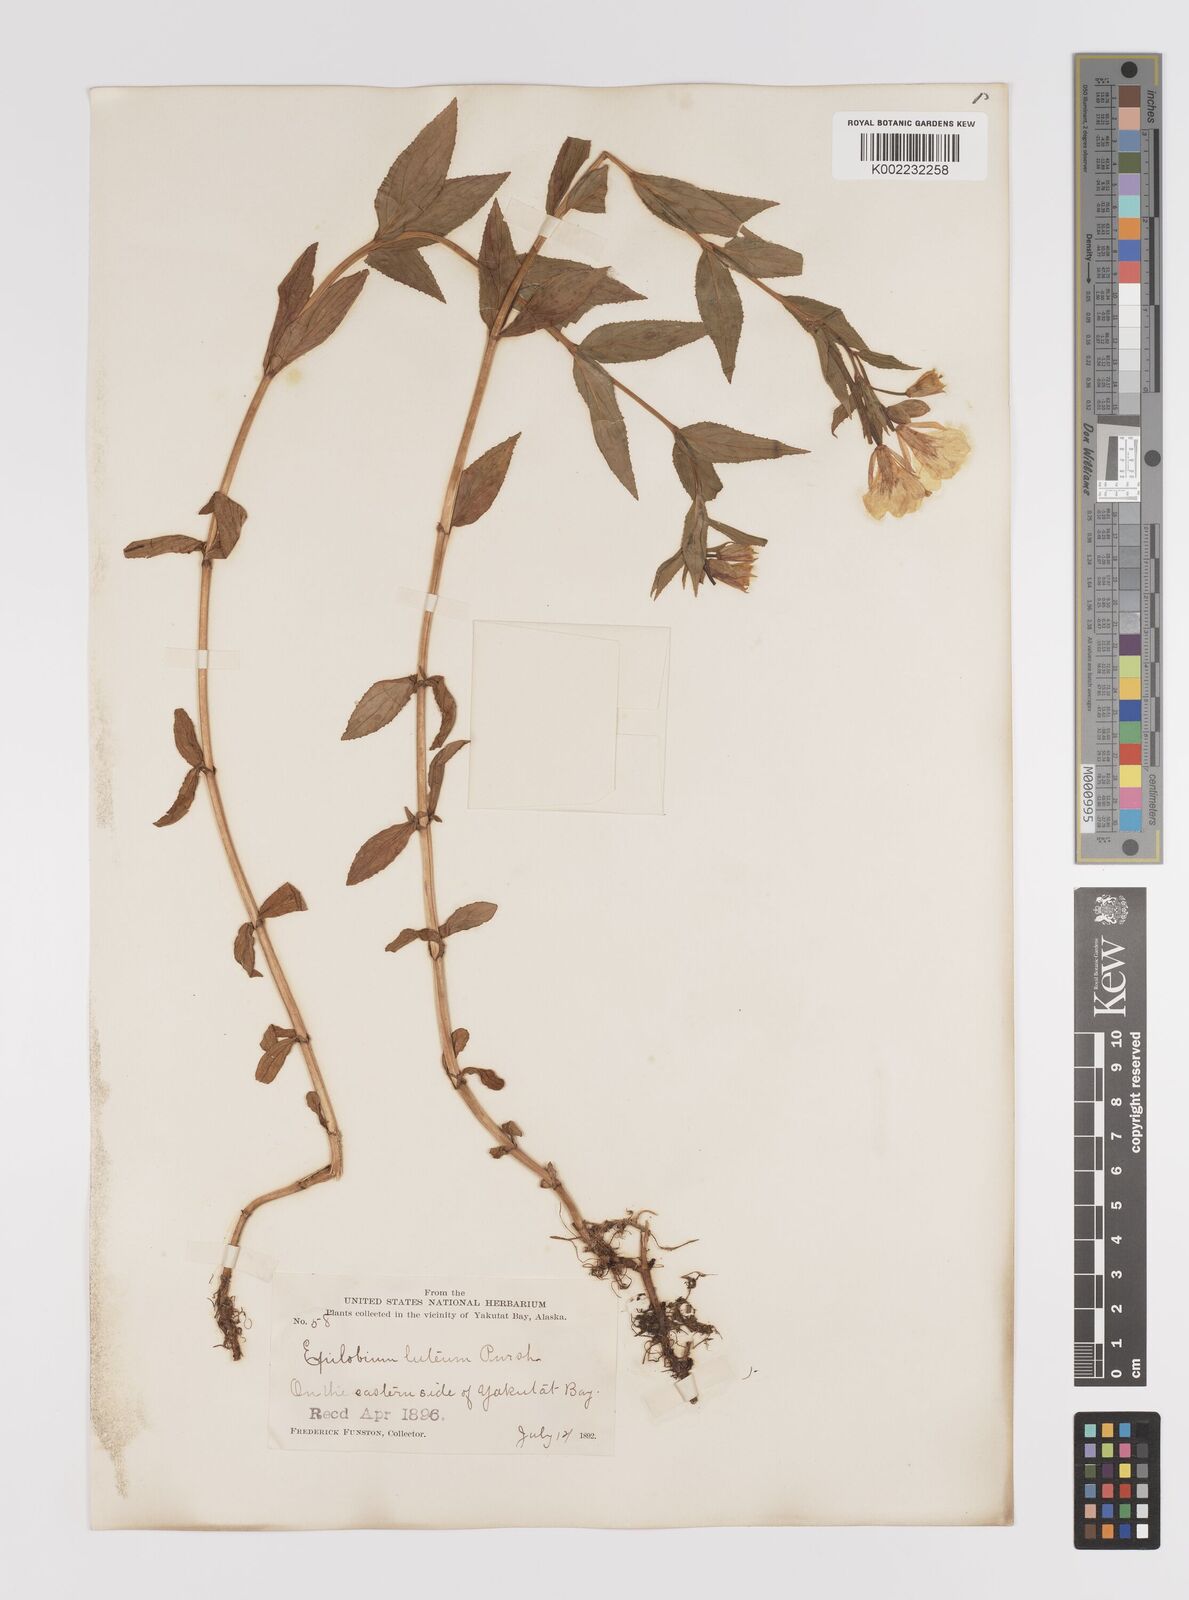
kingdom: Plantae
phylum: Tracheophyta
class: Magnoliopsida
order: Myrtales
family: Onagraceae
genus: Epilobium
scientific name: Epilobium luteum
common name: Yellow willowherb
